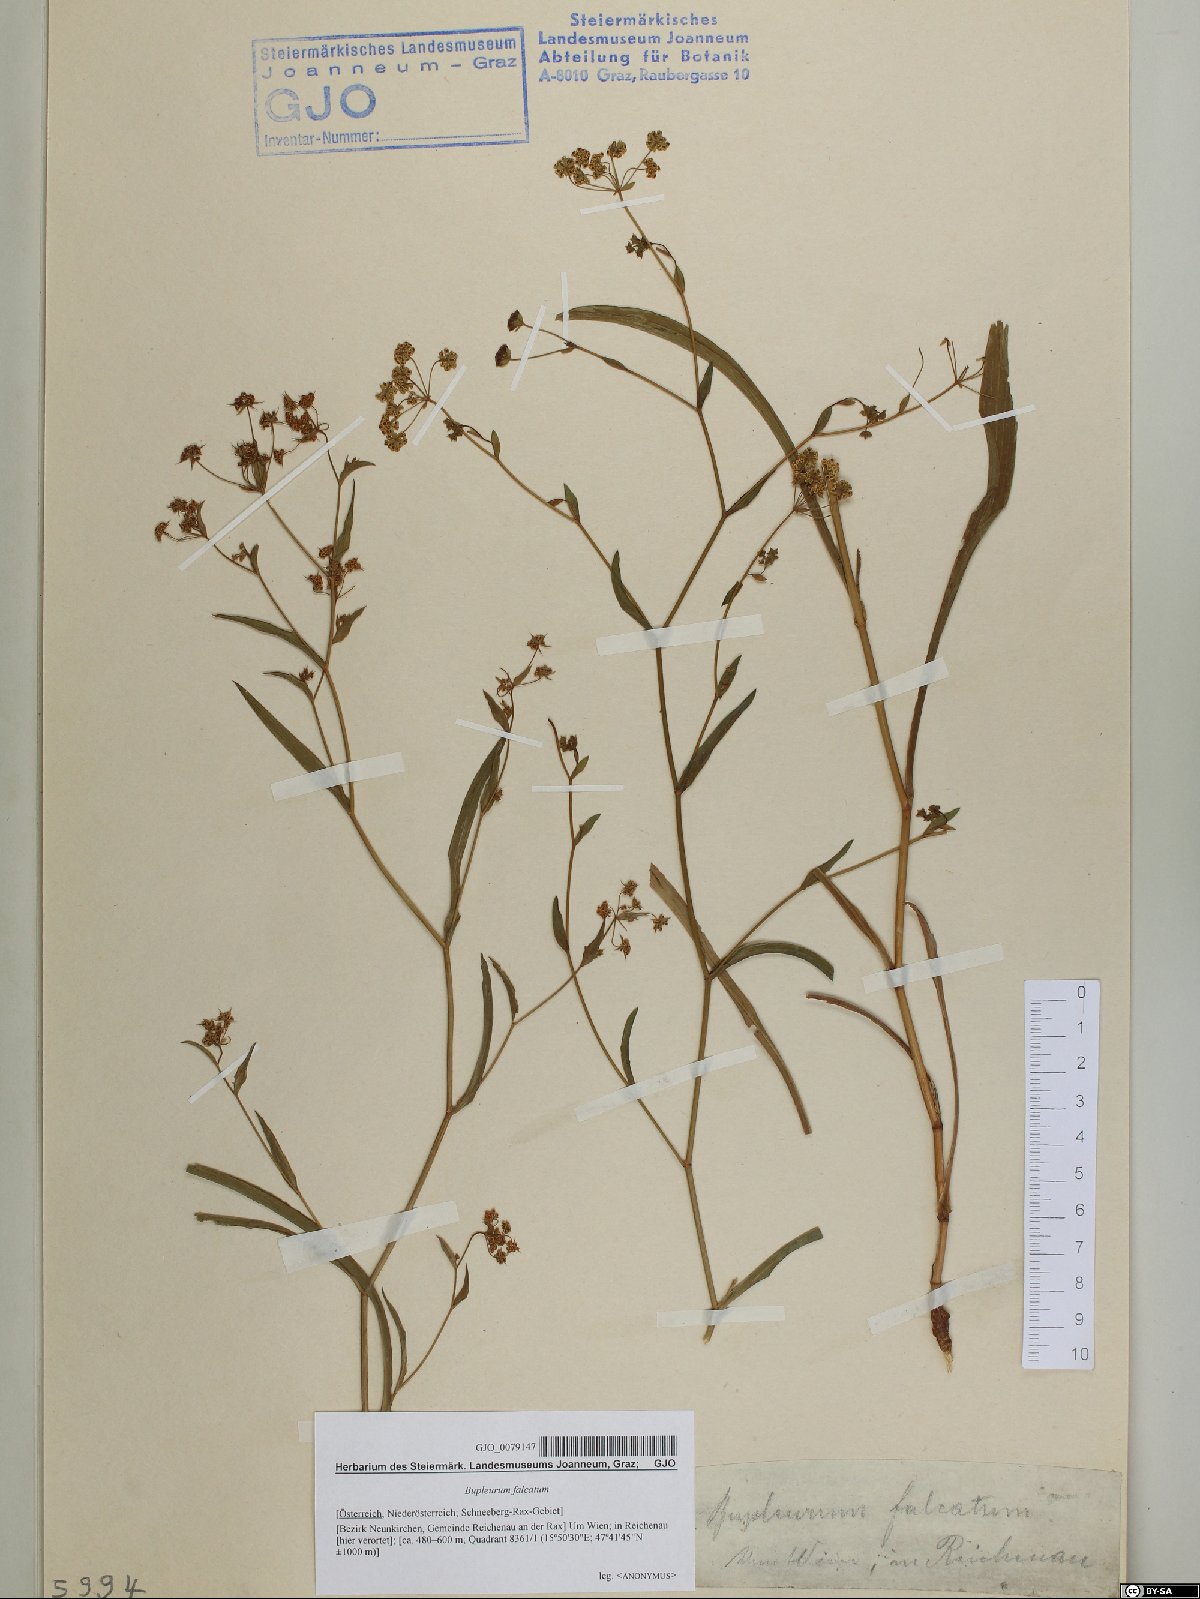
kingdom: Plantae
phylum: Tracheophyta
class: Magnoliopsida
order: Apiales
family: Apiaceae
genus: Bupleurum
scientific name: Bupleurum falcatum
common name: Sickle-leaved hare's-ear
